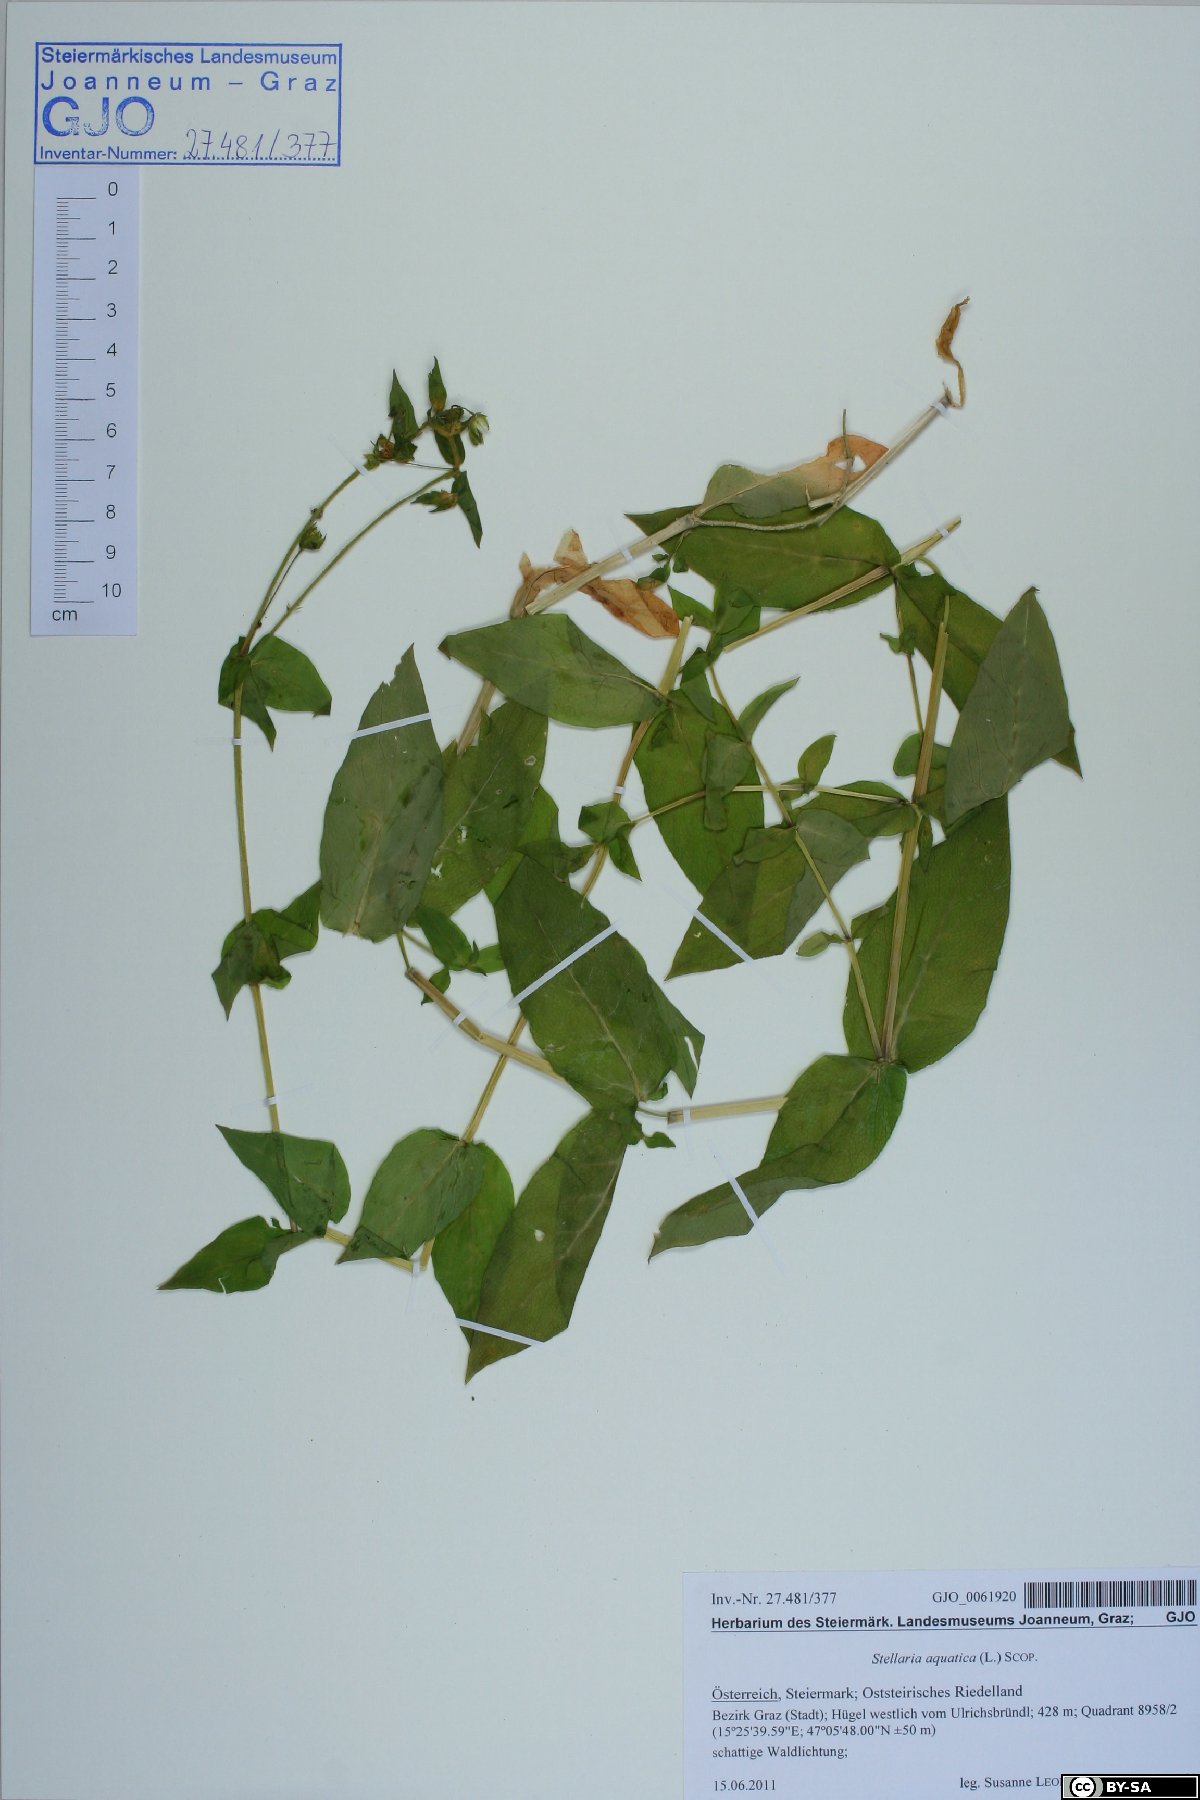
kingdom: Plantae
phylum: Tracheophyta
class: Magnoliopsida
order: Caryophyllales
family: Caryophyllaceae
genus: Stellaria
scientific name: Stellaria aquatica
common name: Water chickweed
